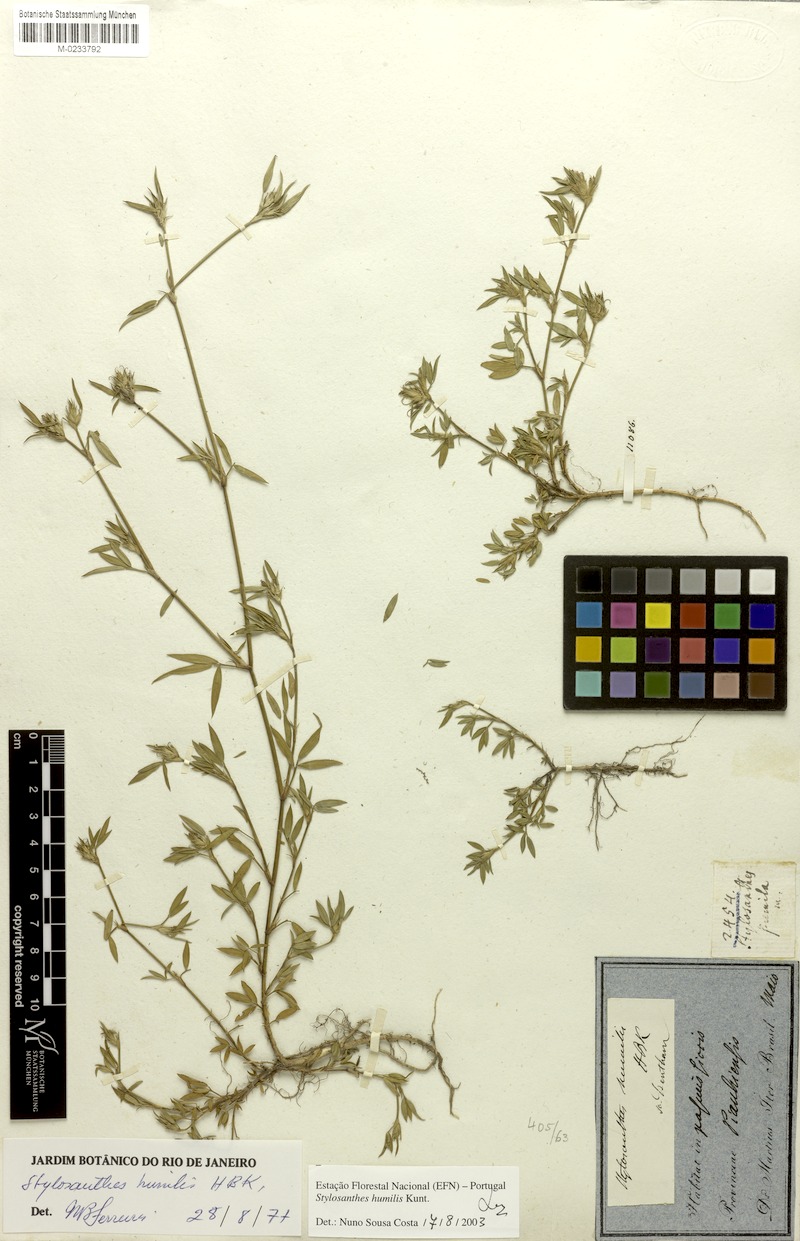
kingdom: Plantae
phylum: Tracheophyta
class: Magnoliopsida
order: Fabales
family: Fabaceae
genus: Stylosanthes
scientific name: Stylosanthes humilis
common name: Townsville stylo
